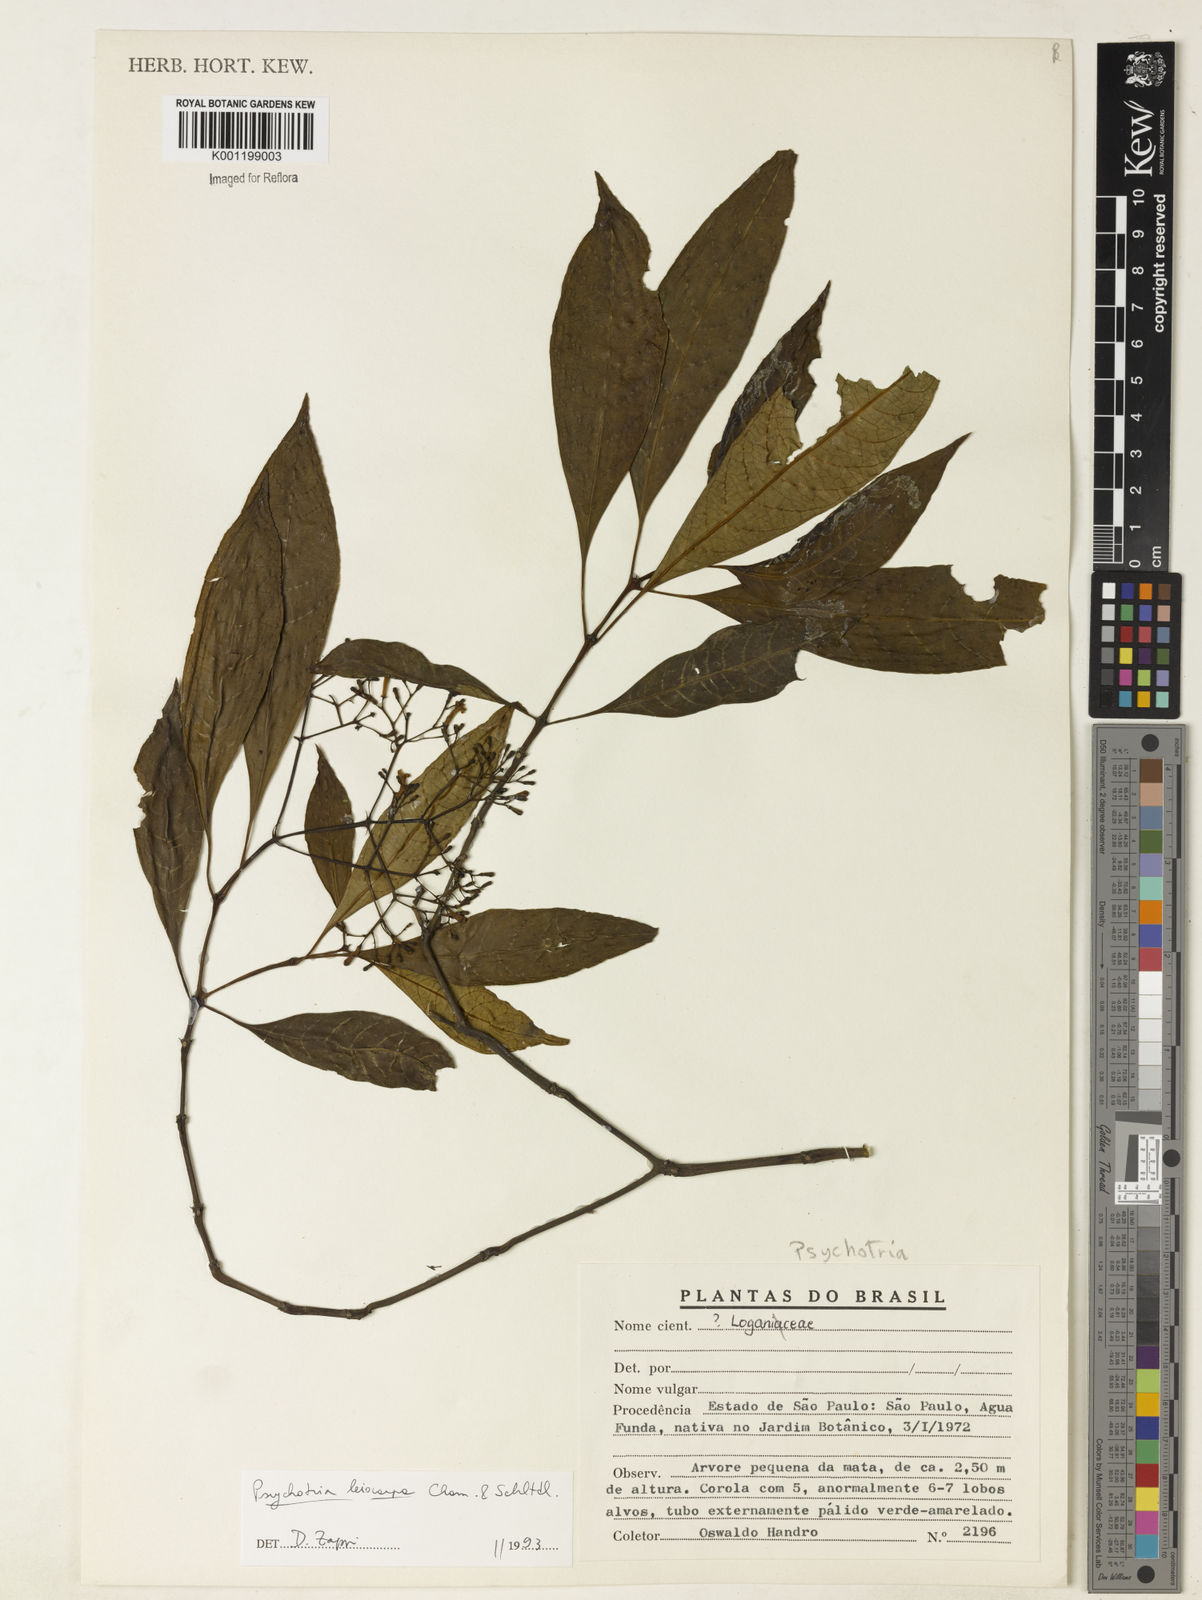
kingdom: Plantae
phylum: Tracheophyta
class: Magnoliopsida
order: Gentianales
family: Rubiaceae
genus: Psychotria
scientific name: Psychotria leiocarpa
